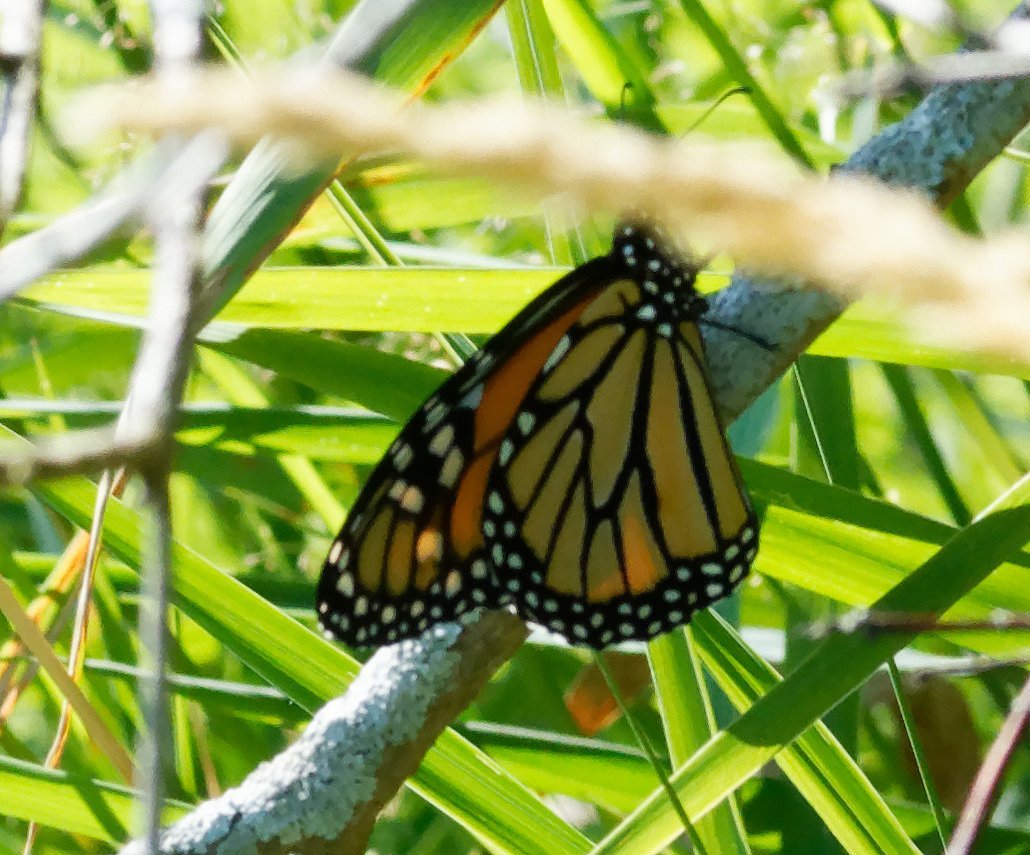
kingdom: Animalia
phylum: Arthropoda
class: Insecta
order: Lepidoptera
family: Nymphalidae
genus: Danaus
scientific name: Danaus plexippus
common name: Monarch
